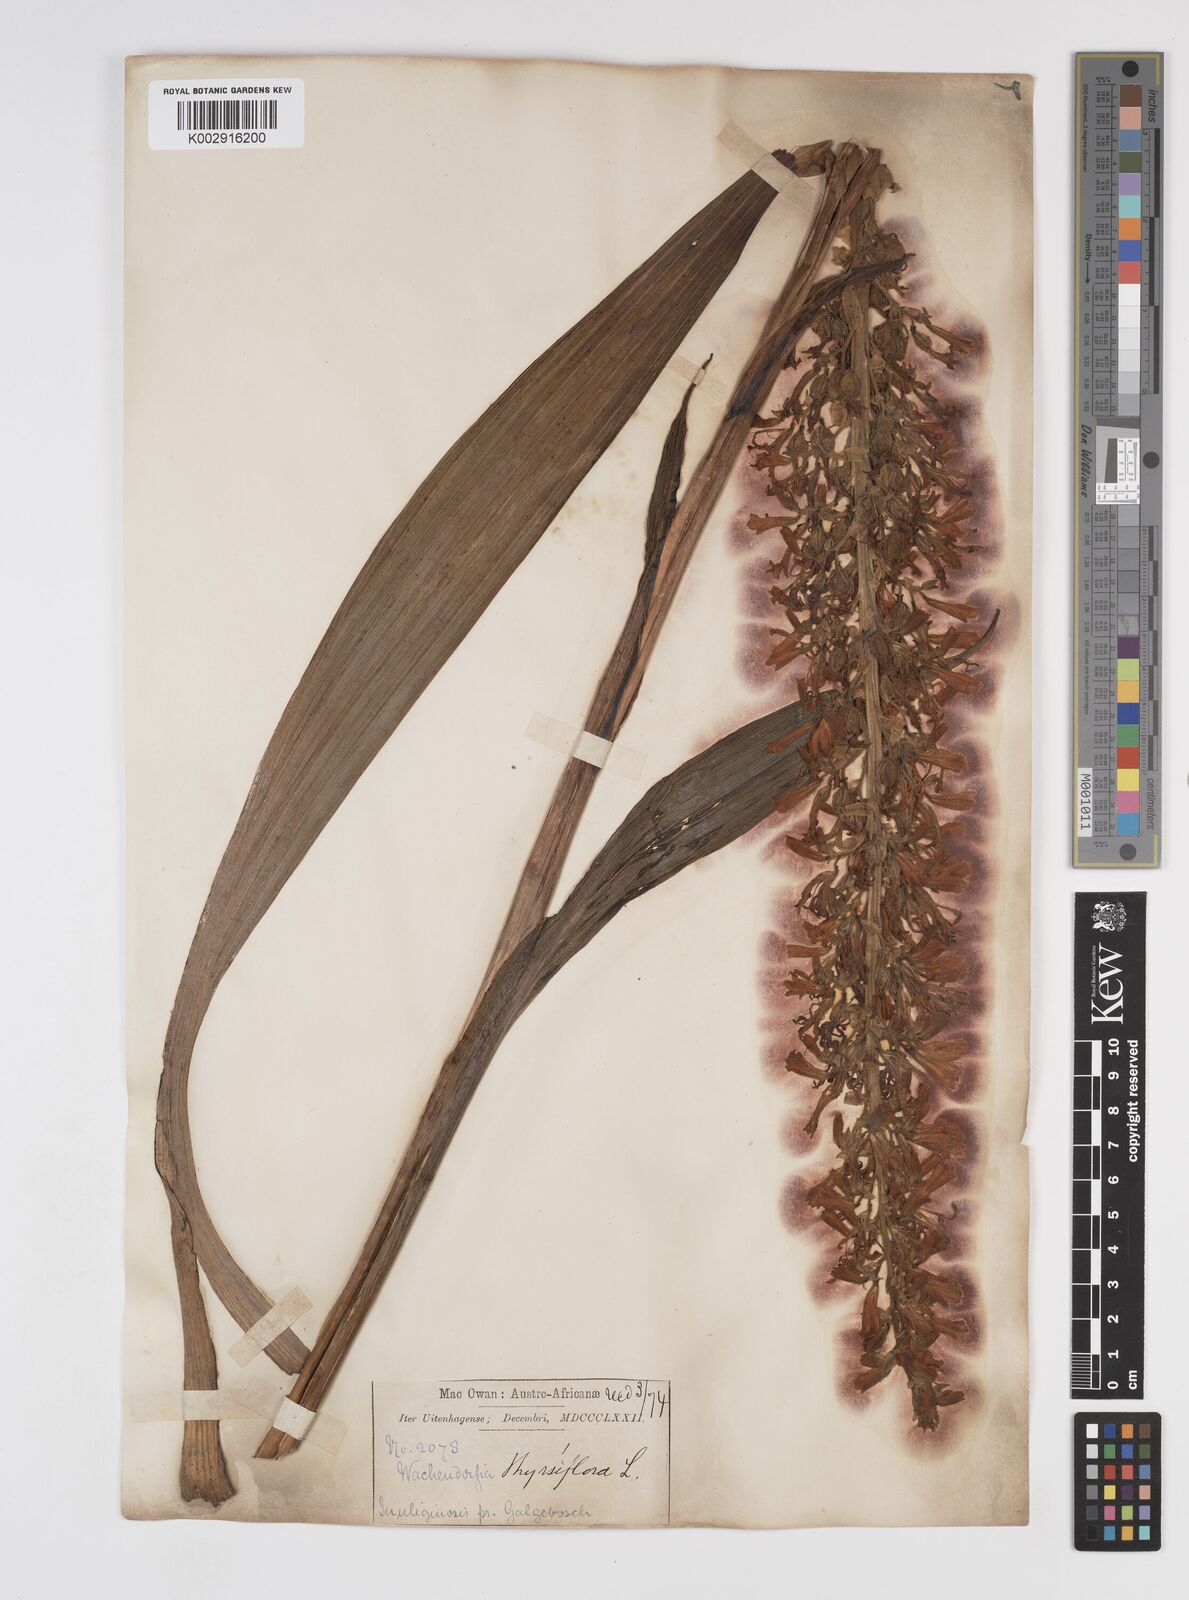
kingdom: Plantae
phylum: Tracheophyta
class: Liliopsida
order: Commelinales
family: Haemodoraceae
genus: Wachendorfia
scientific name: Wachendorfia thyrsiflora
